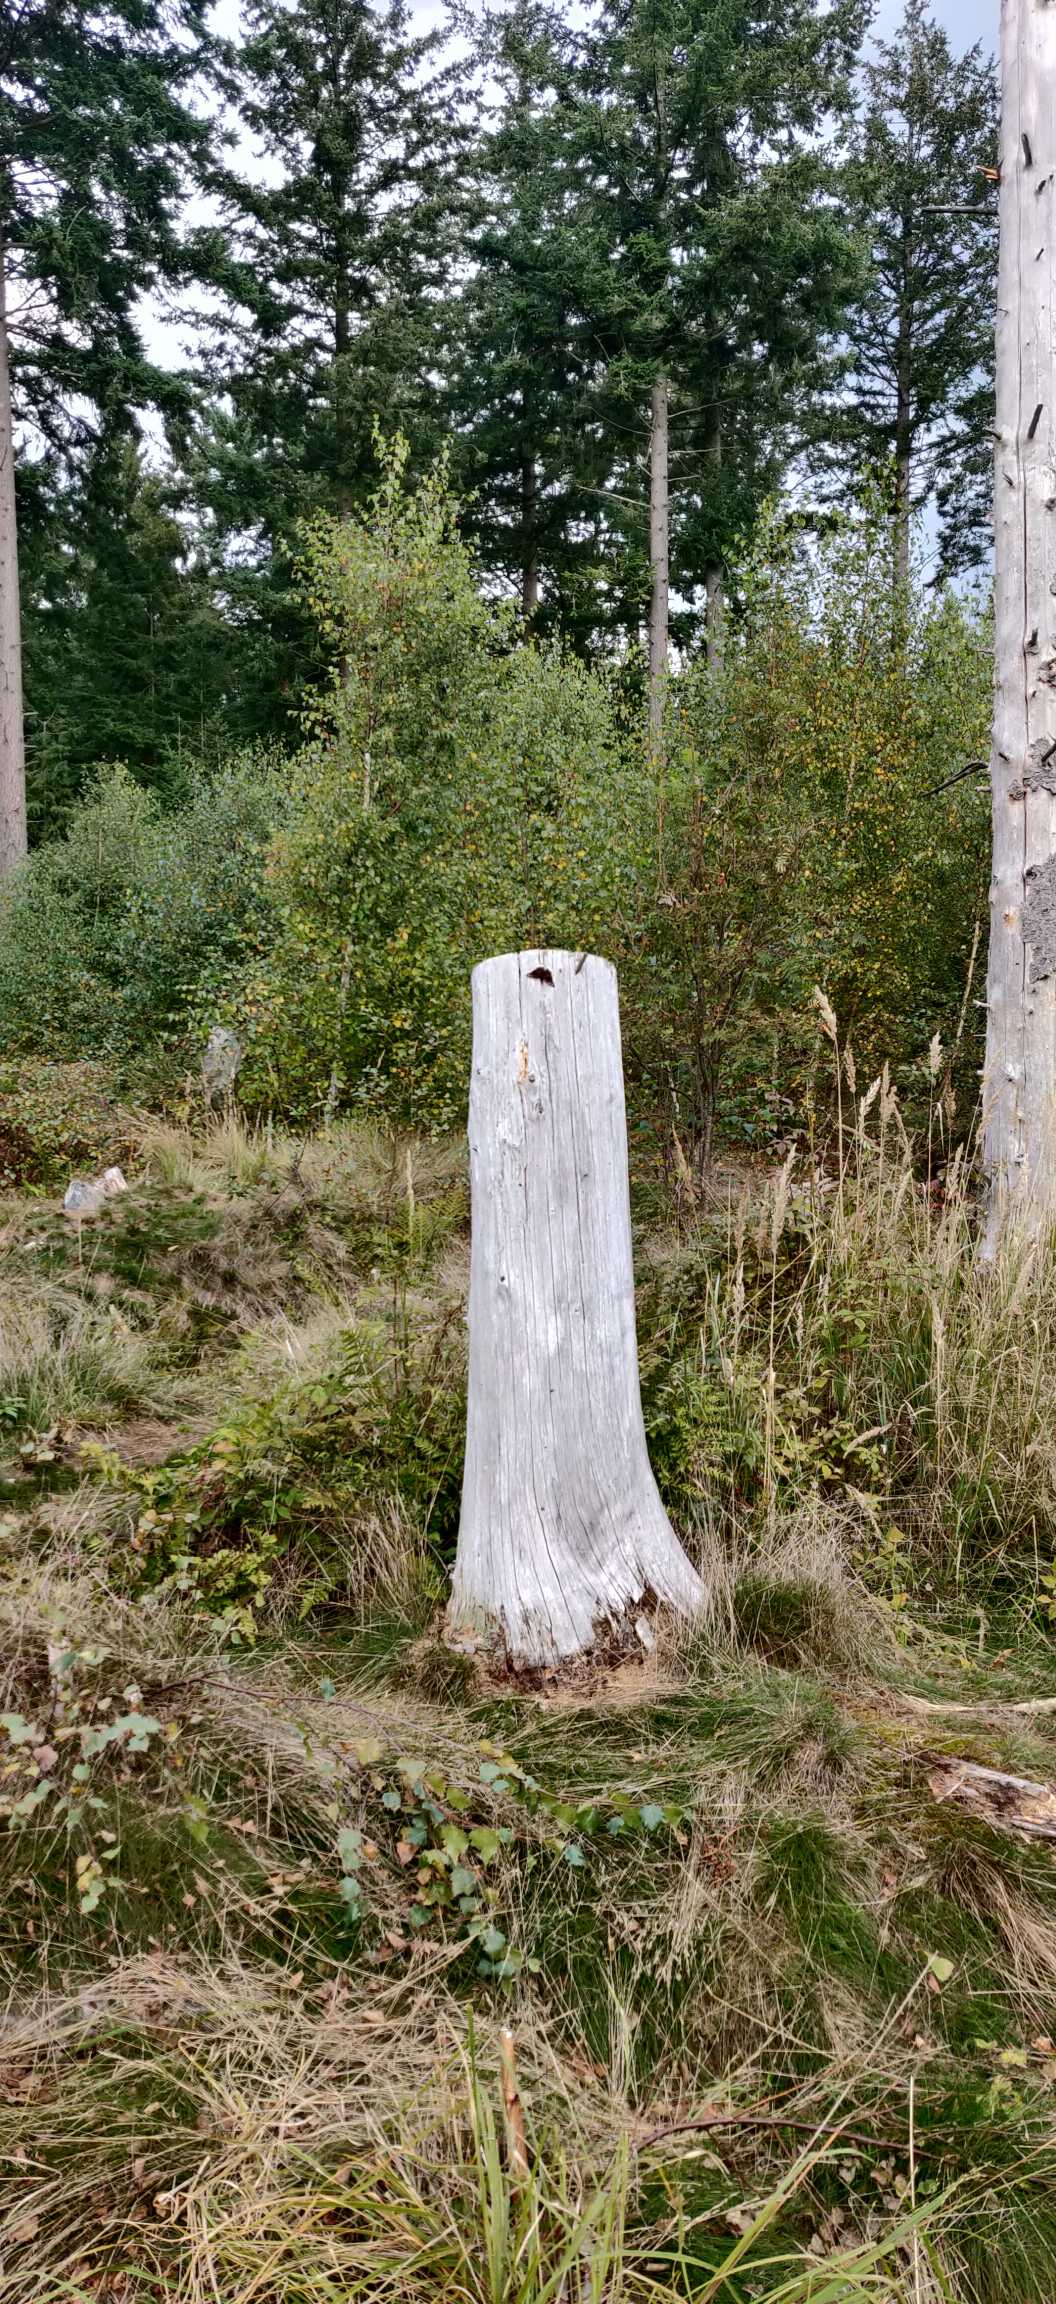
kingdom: Animalia
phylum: Arthropoda
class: Insecta
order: Lepidoptera
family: Nymphalidae
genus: Nymphalis
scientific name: Nymphalis antiopa
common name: Sørgekåbe
